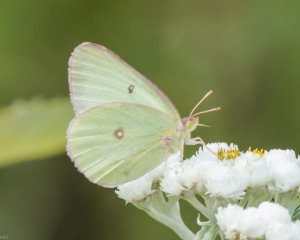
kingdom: Animalia
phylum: Arthropoda
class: Insecta
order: Lepidoptera
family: Pieridae
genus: Colias
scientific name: Colias interior
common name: Pink-edged Sulphur
